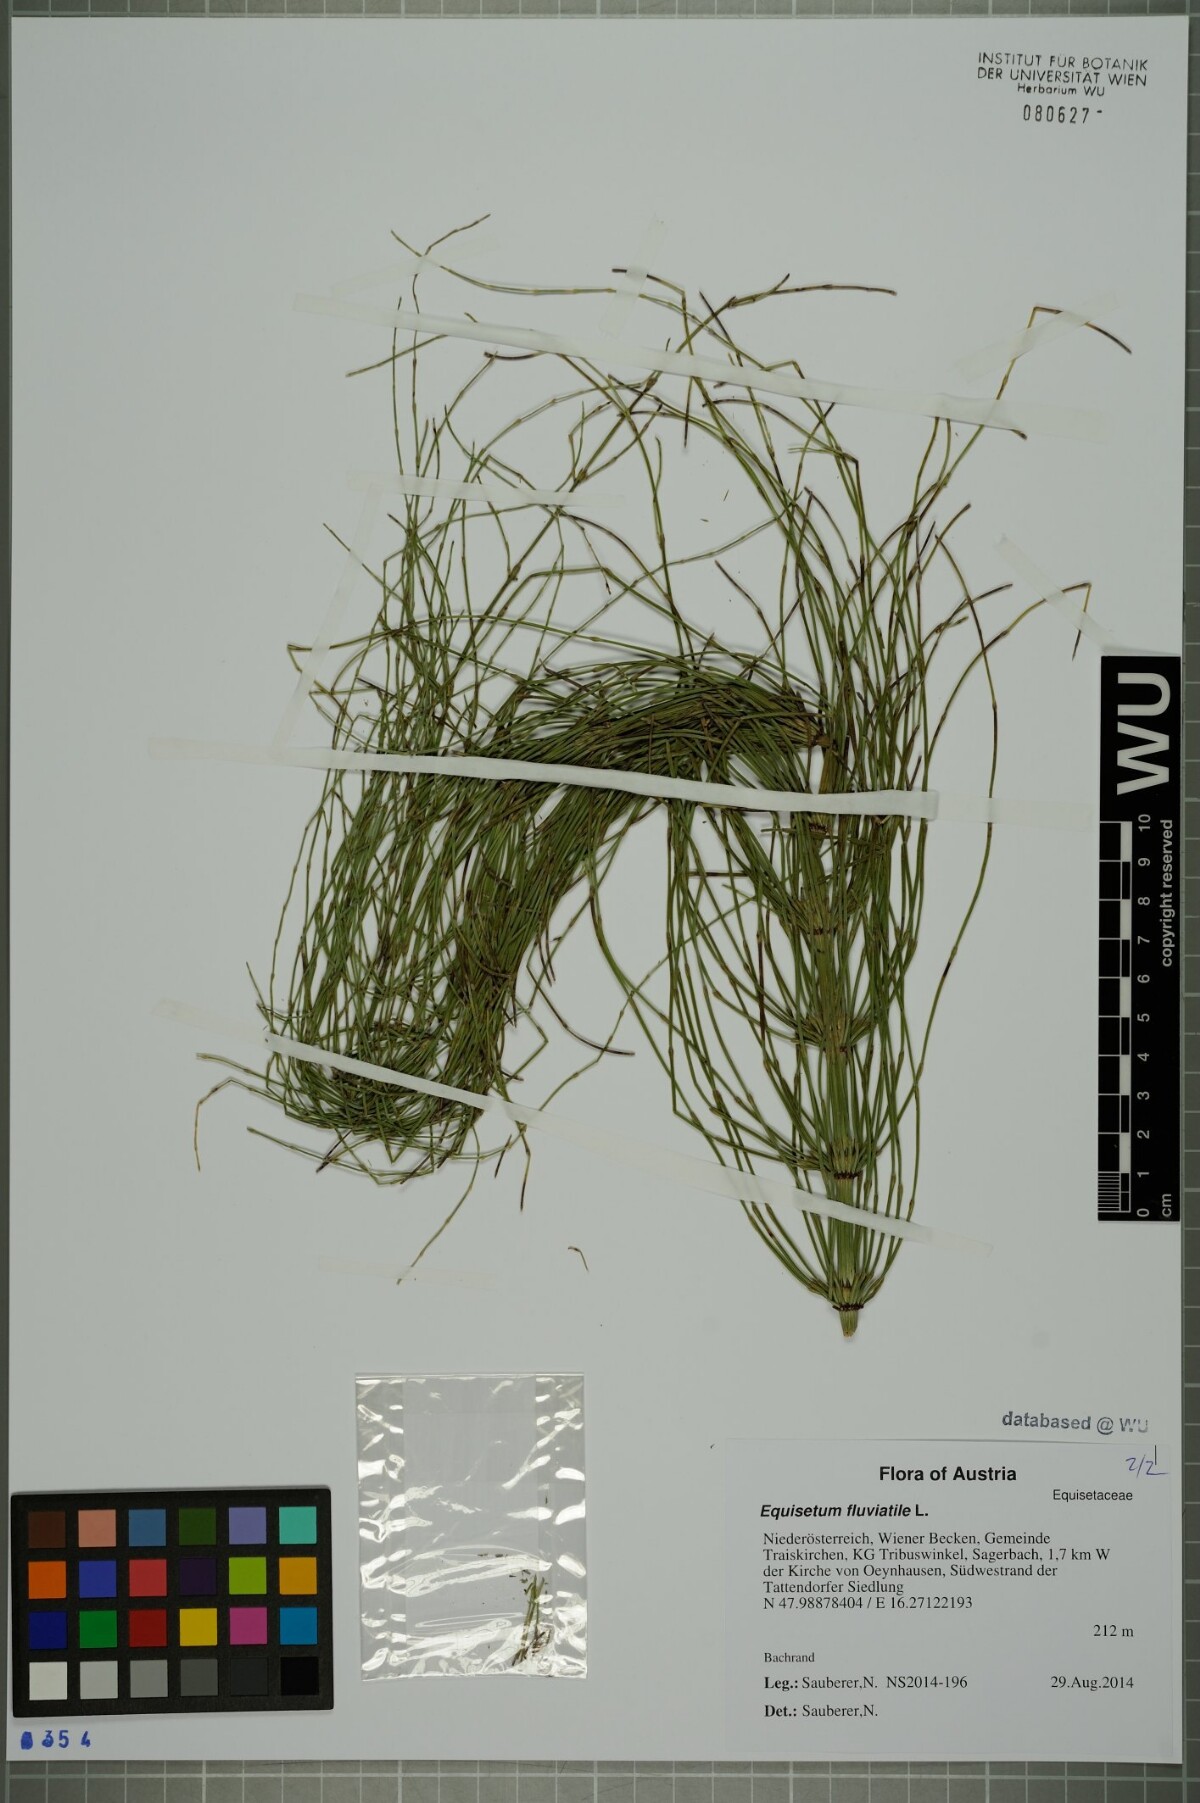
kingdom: Plantae
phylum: Tracheophyta
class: Polypodiopsida
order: Equisetales
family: Equisetaceae
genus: Equisetum
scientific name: Equisetum fluviatile
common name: Water horsetail
